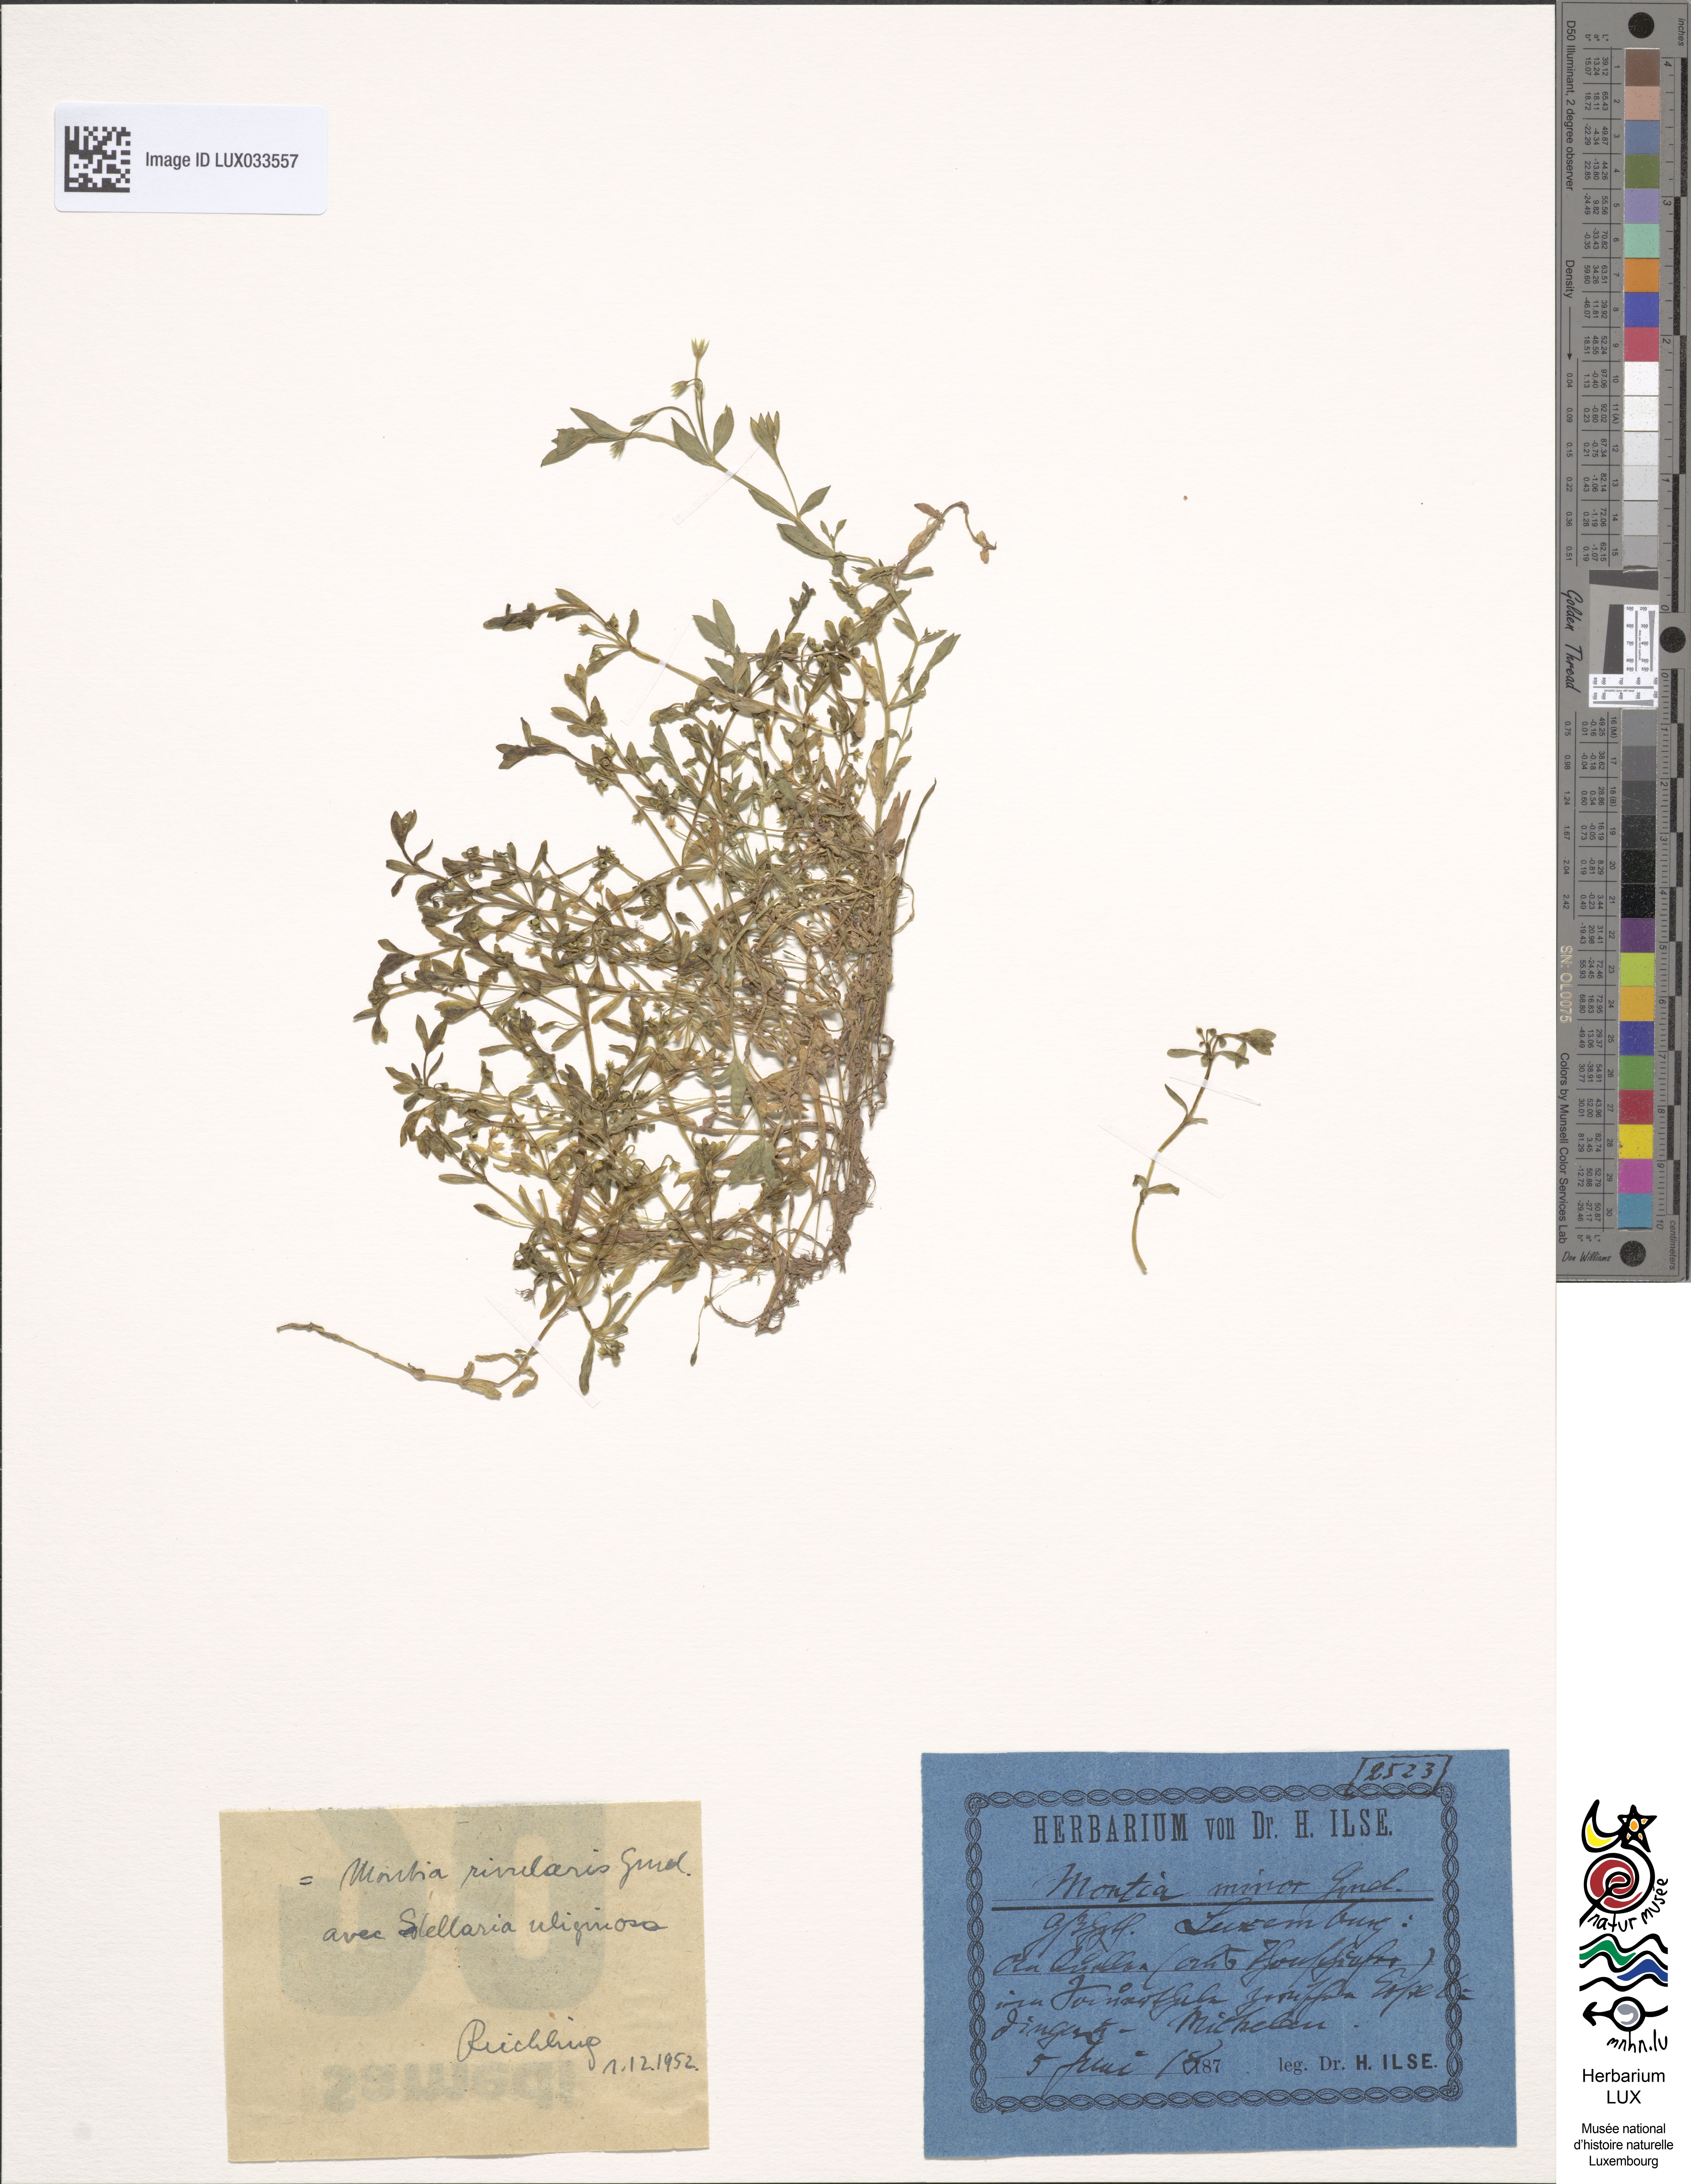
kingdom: Plantae
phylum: Tracheophyta
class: Magnoliopsida
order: Caryophyllales
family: Montiaceae
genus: Montia
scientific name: Montia fontana
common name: Blinks
